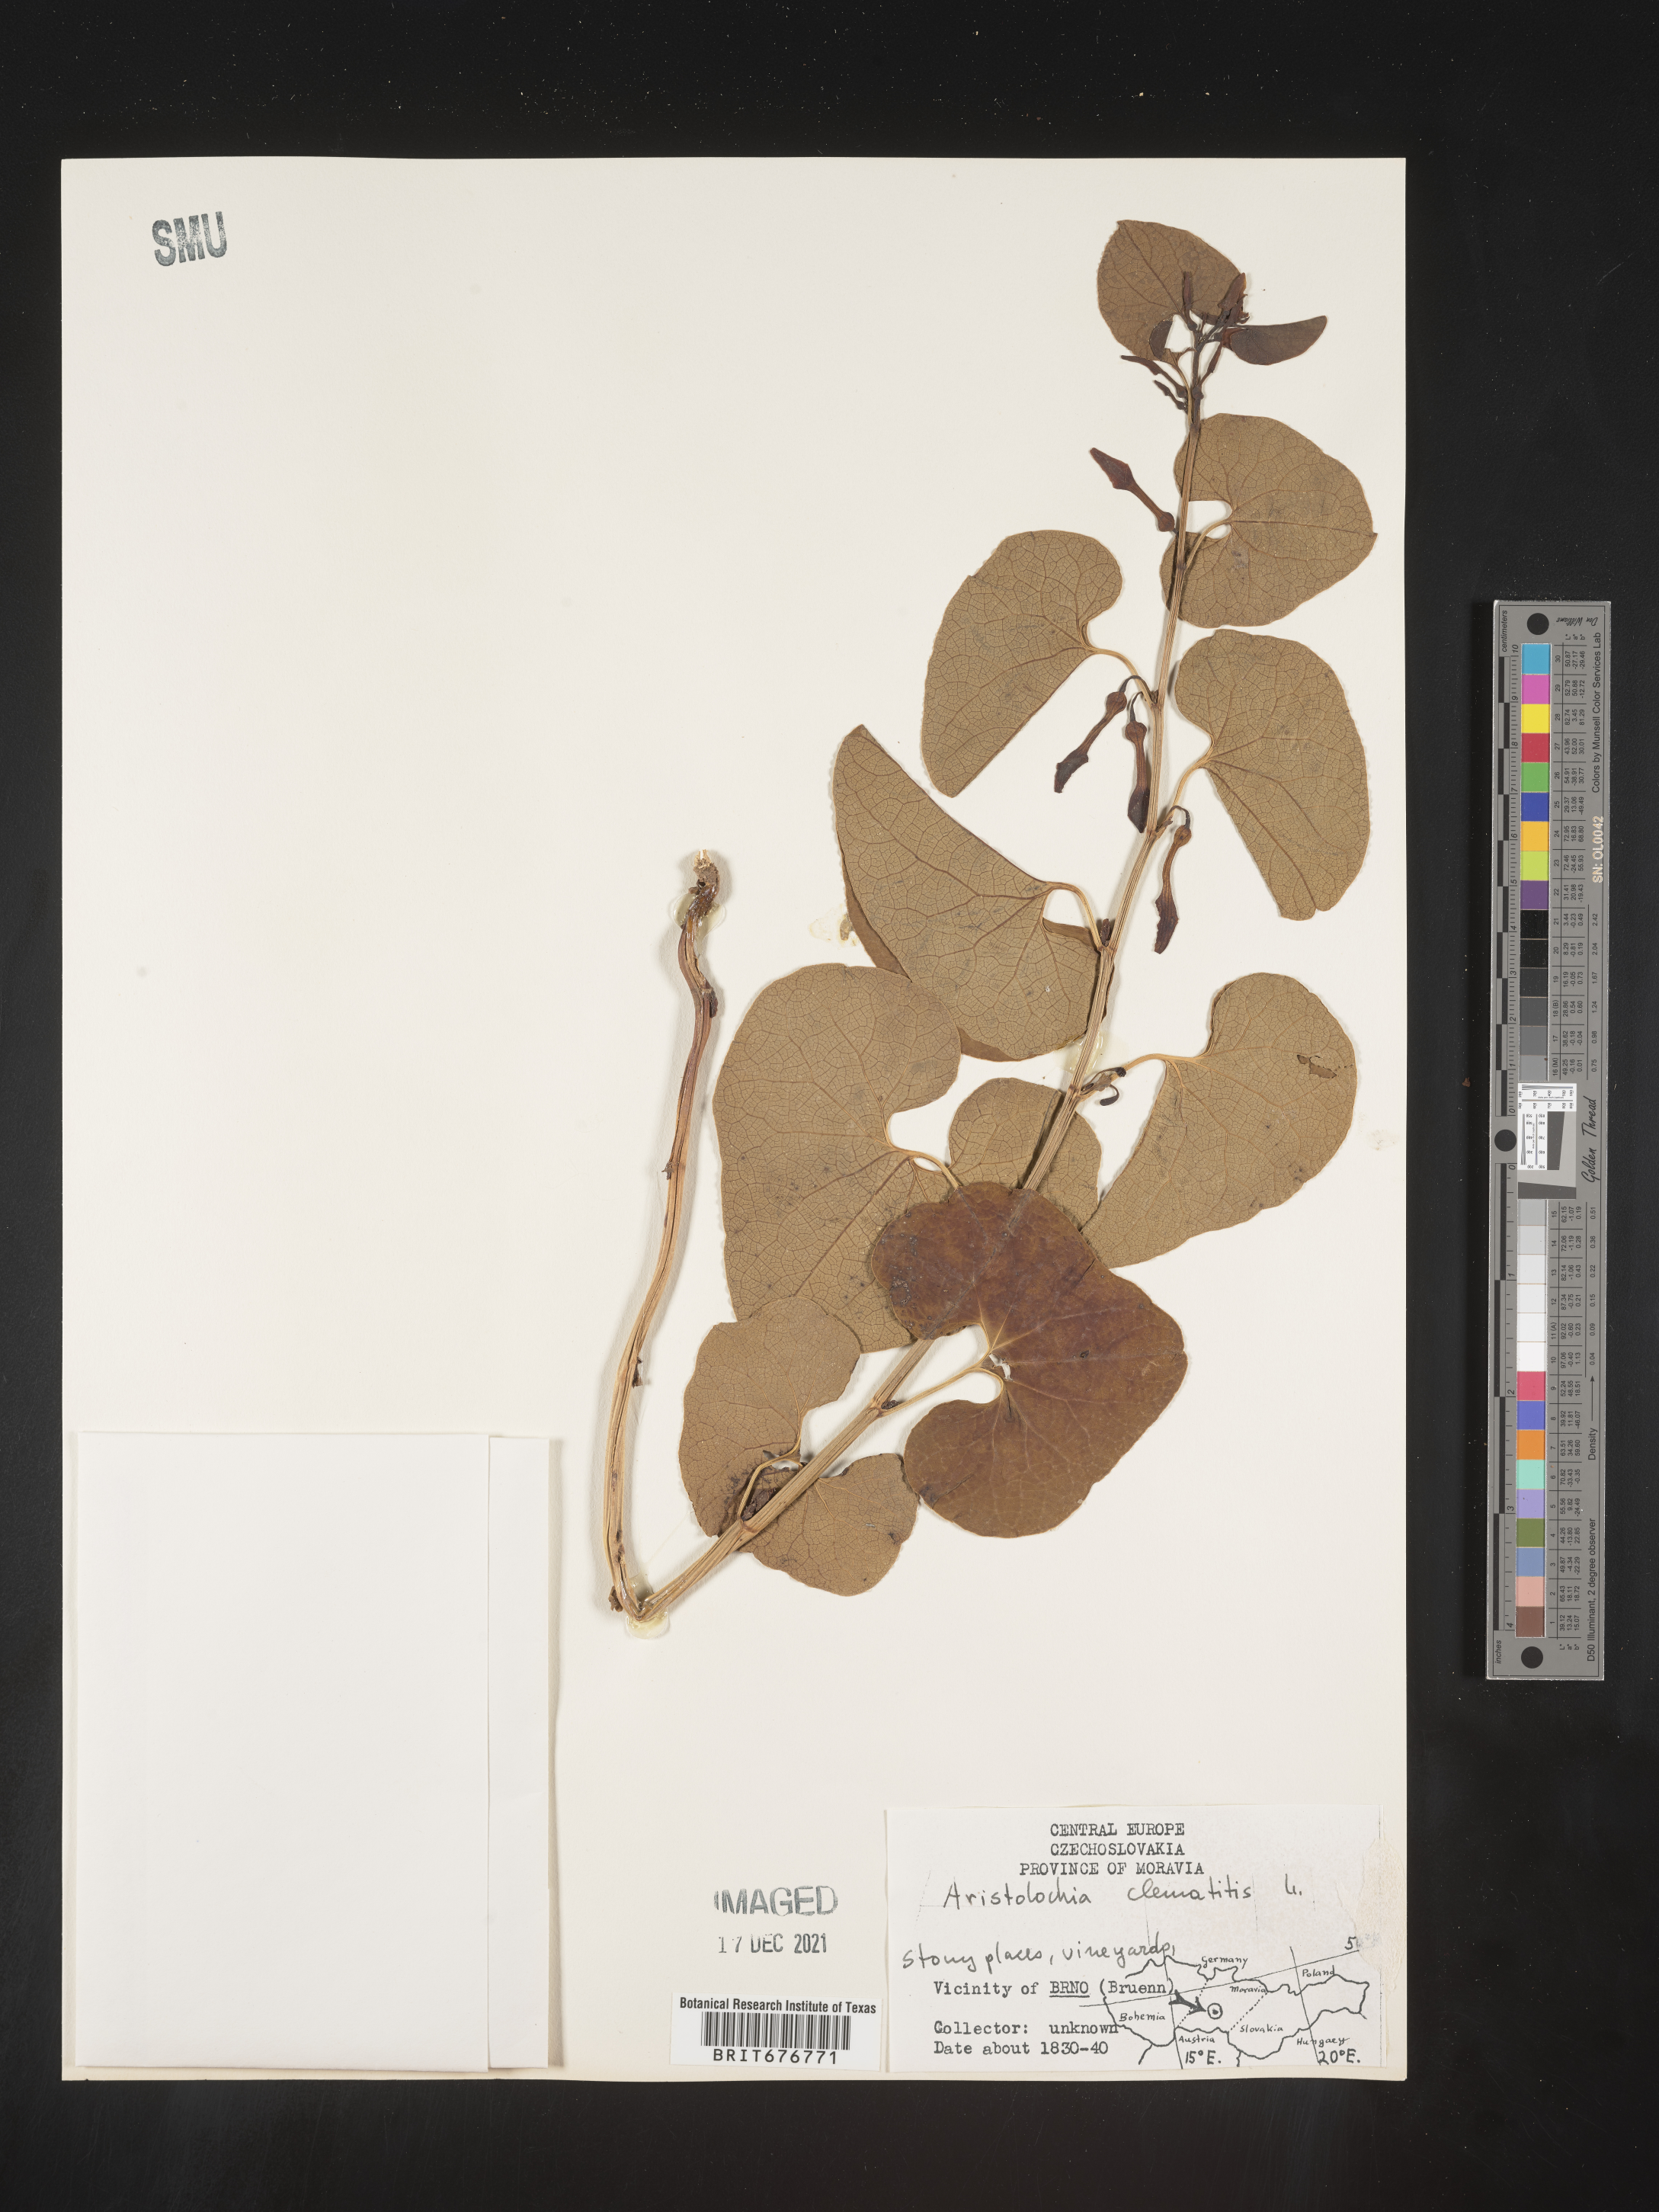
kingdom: Plantae
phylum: Tracheophyta
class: Magnoliopsida
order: Piperales
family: Aristolochiaceae
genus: Aristolochia
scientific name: Aristolochia
